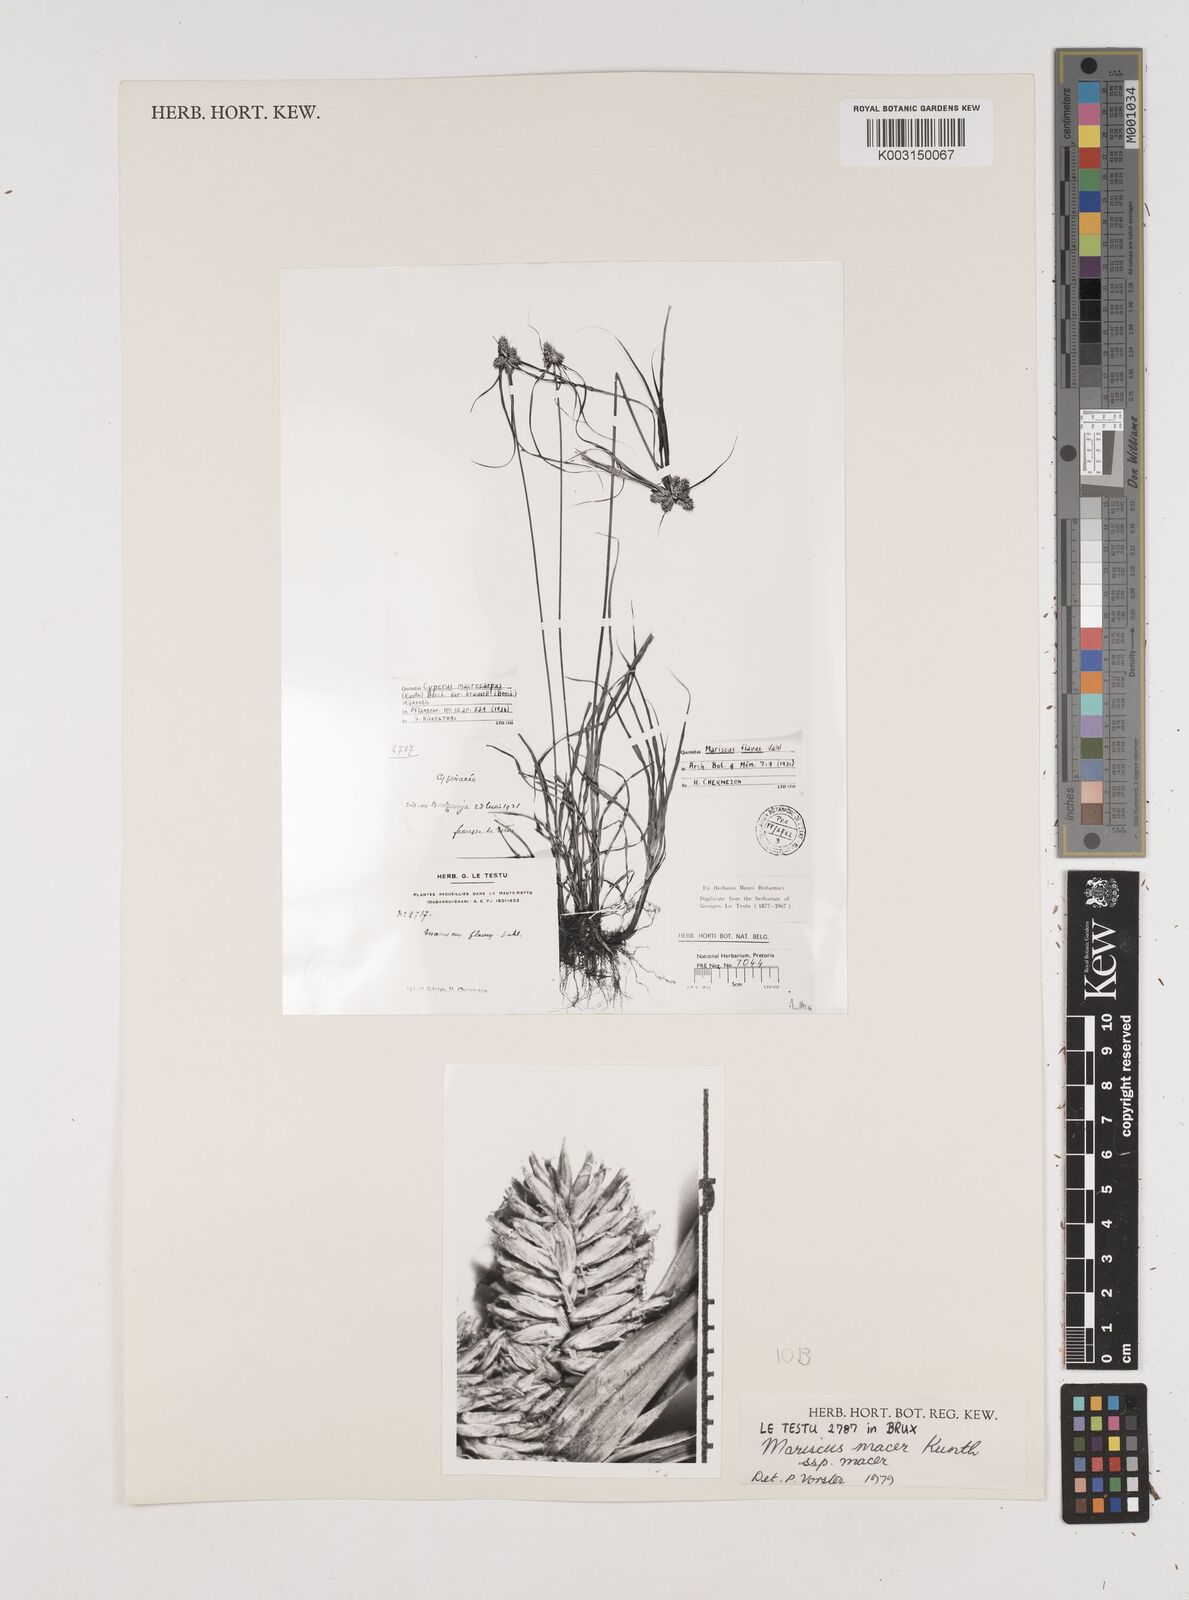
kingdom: Plantae
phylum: Tracheophyta
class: Liliopsida
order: Poales
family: Cyperaceae
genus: Cyperus
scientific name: Cyperus
